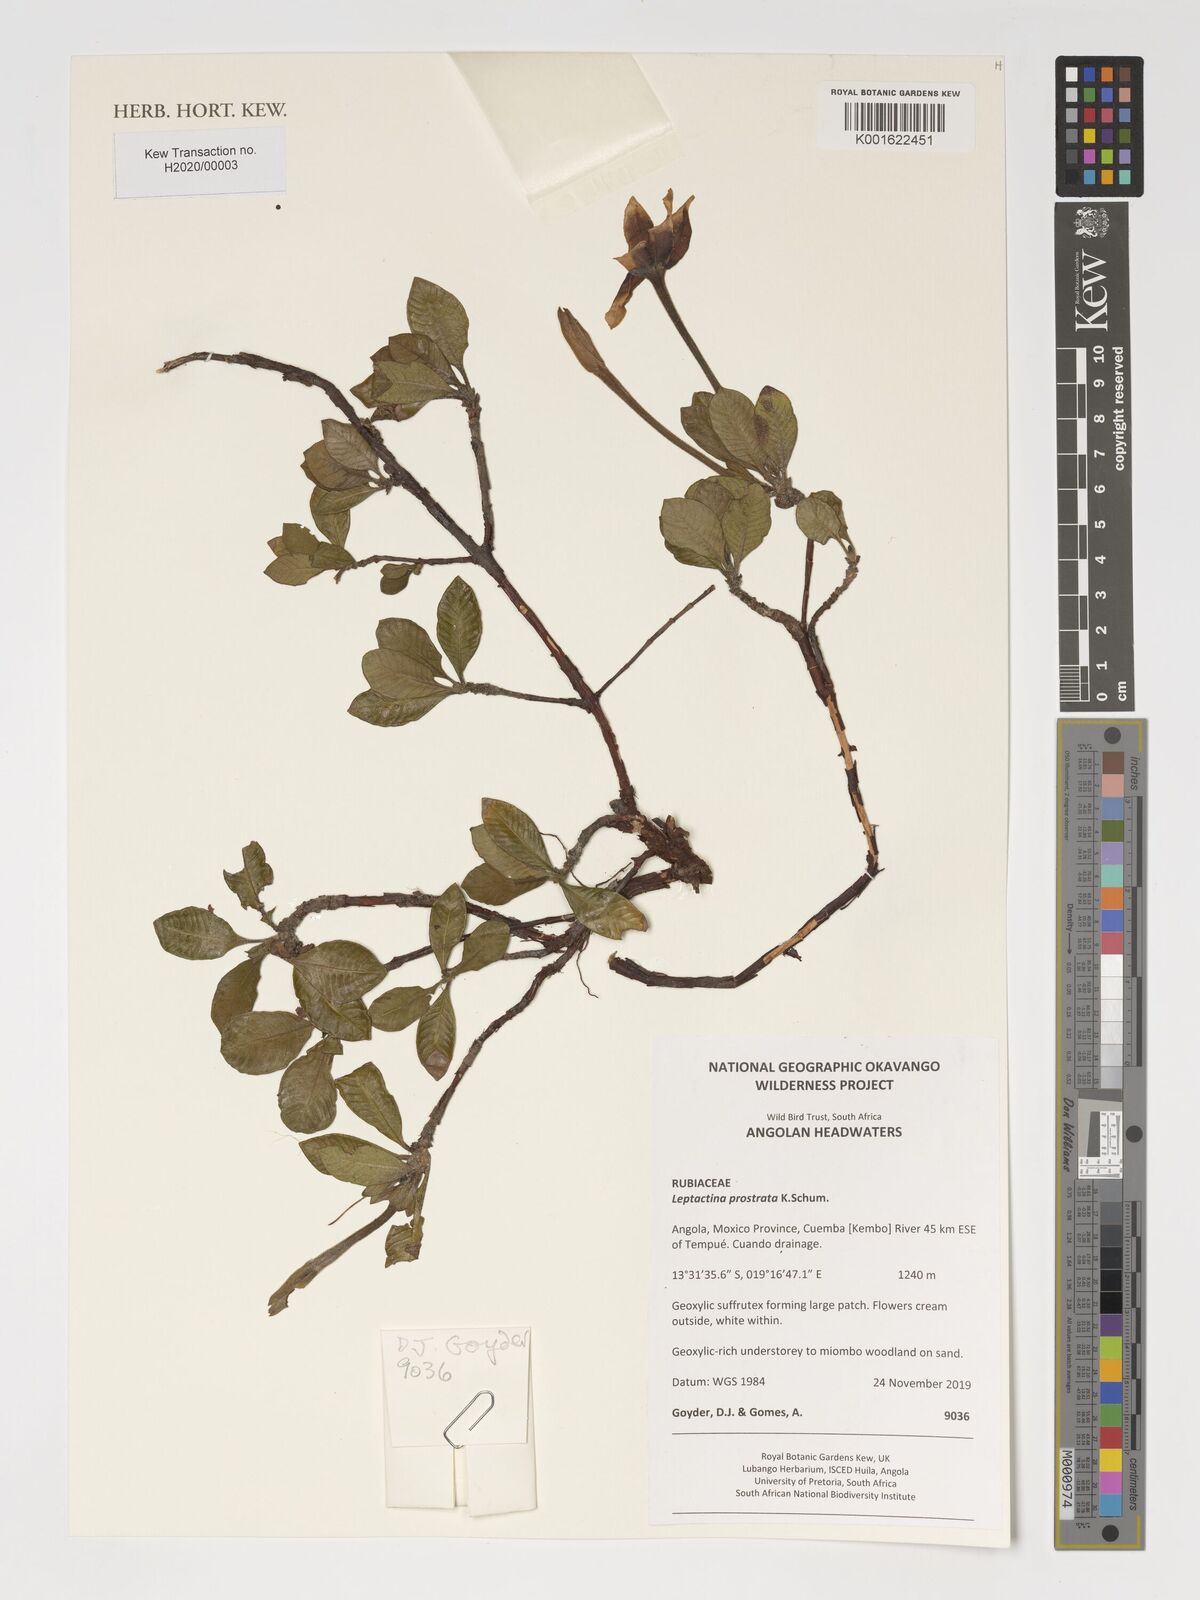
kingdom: Plantae
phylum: Tracheophyta
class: Magnoliopsida
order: Gentianales
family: Rubiaceae
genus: Leptactina
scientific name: Leptactina prostrata
